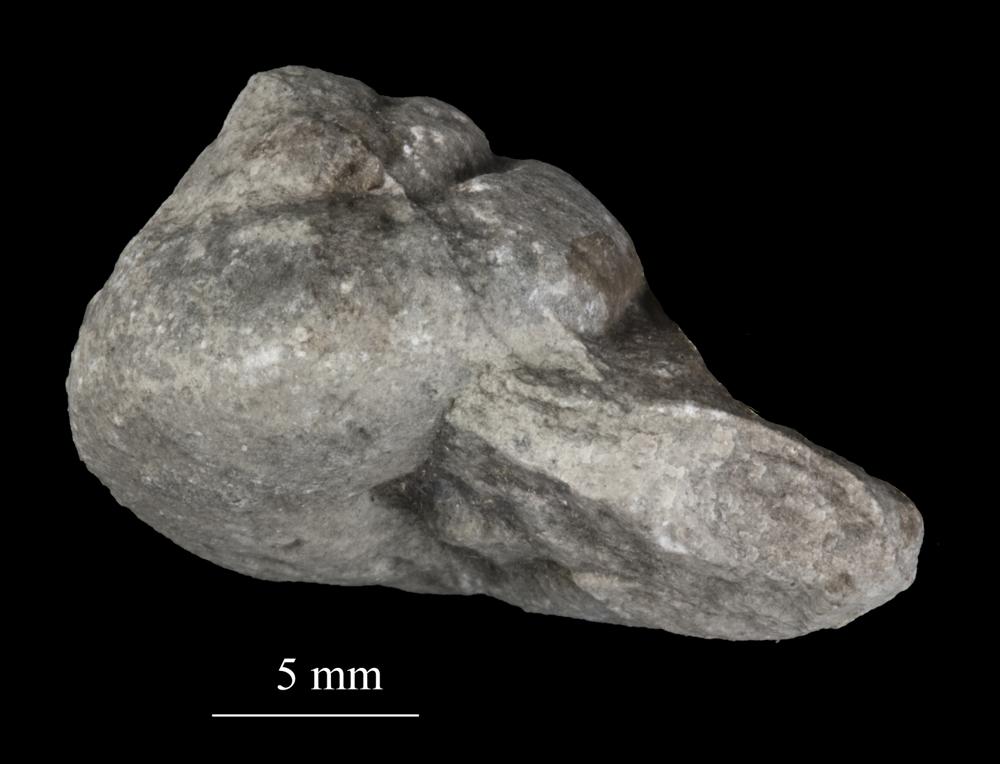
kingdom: Animalia
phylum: Mollusca
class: Gastropoda
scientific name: Gastropoda
